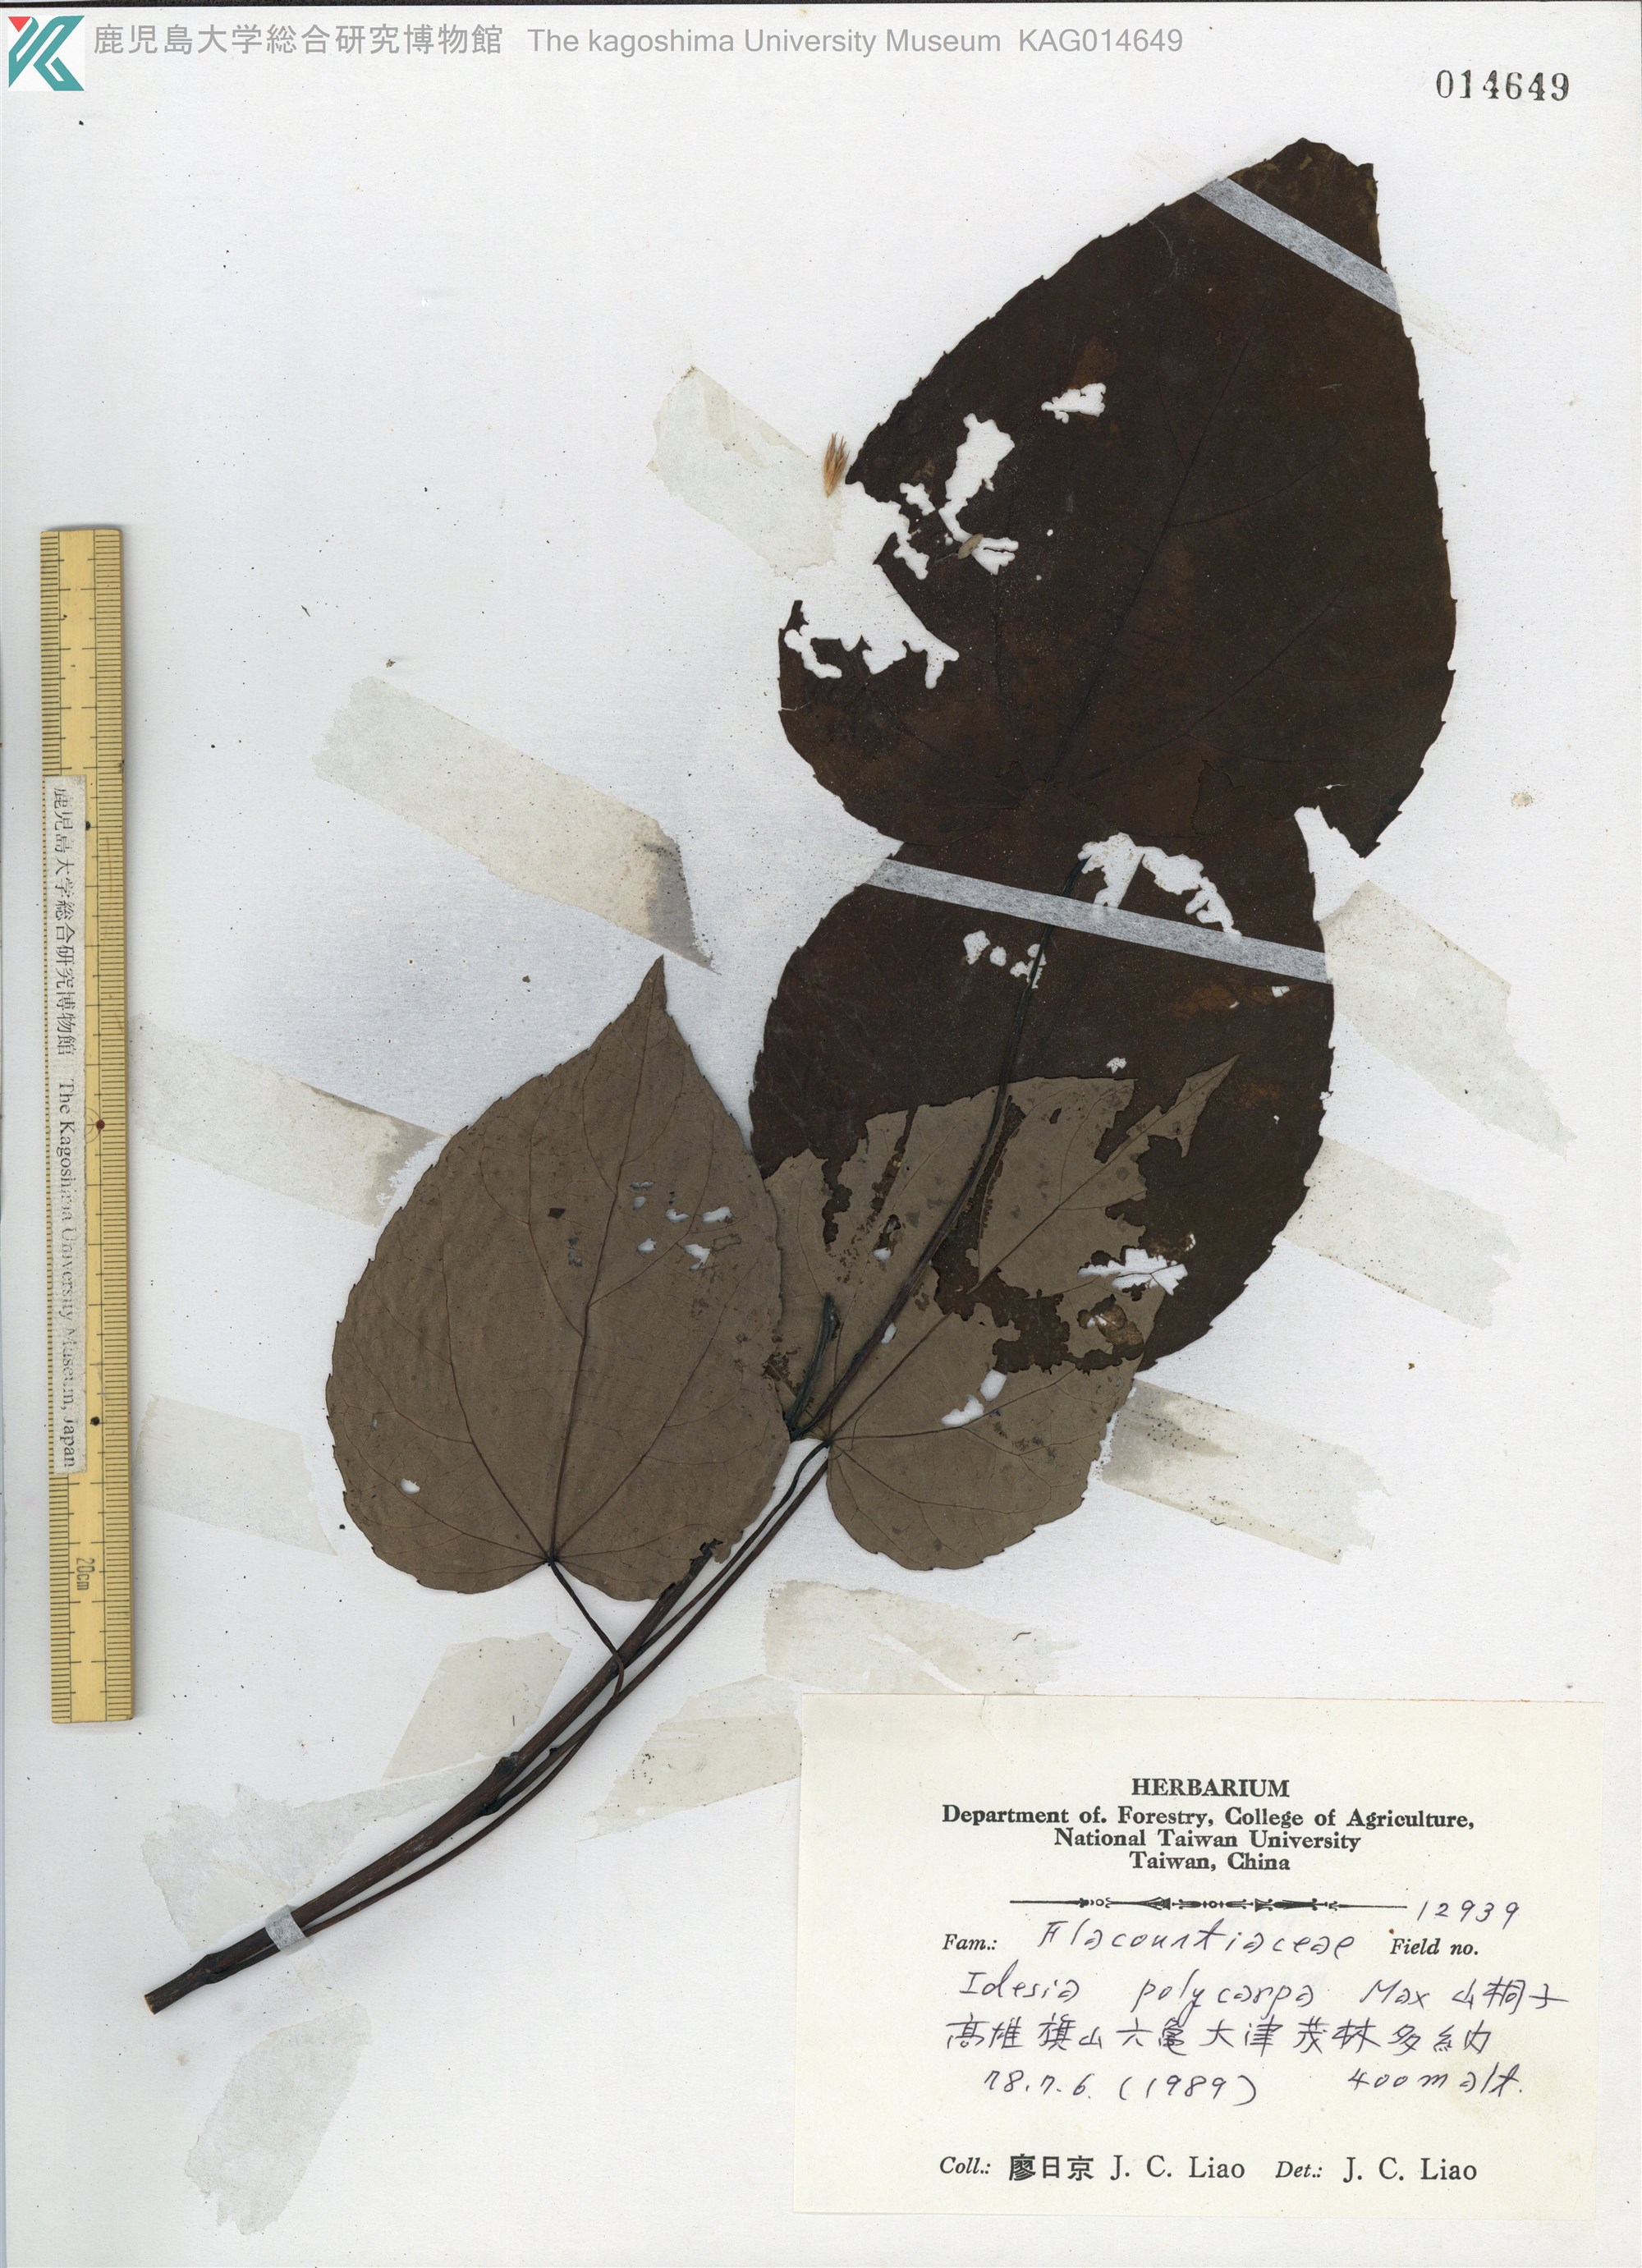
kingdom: Plantae
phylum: Tracheophyta
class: Magnoliopsida
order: Malpighiales
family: Salicaceae
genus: Idesia
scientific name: Idesia polycarpa
